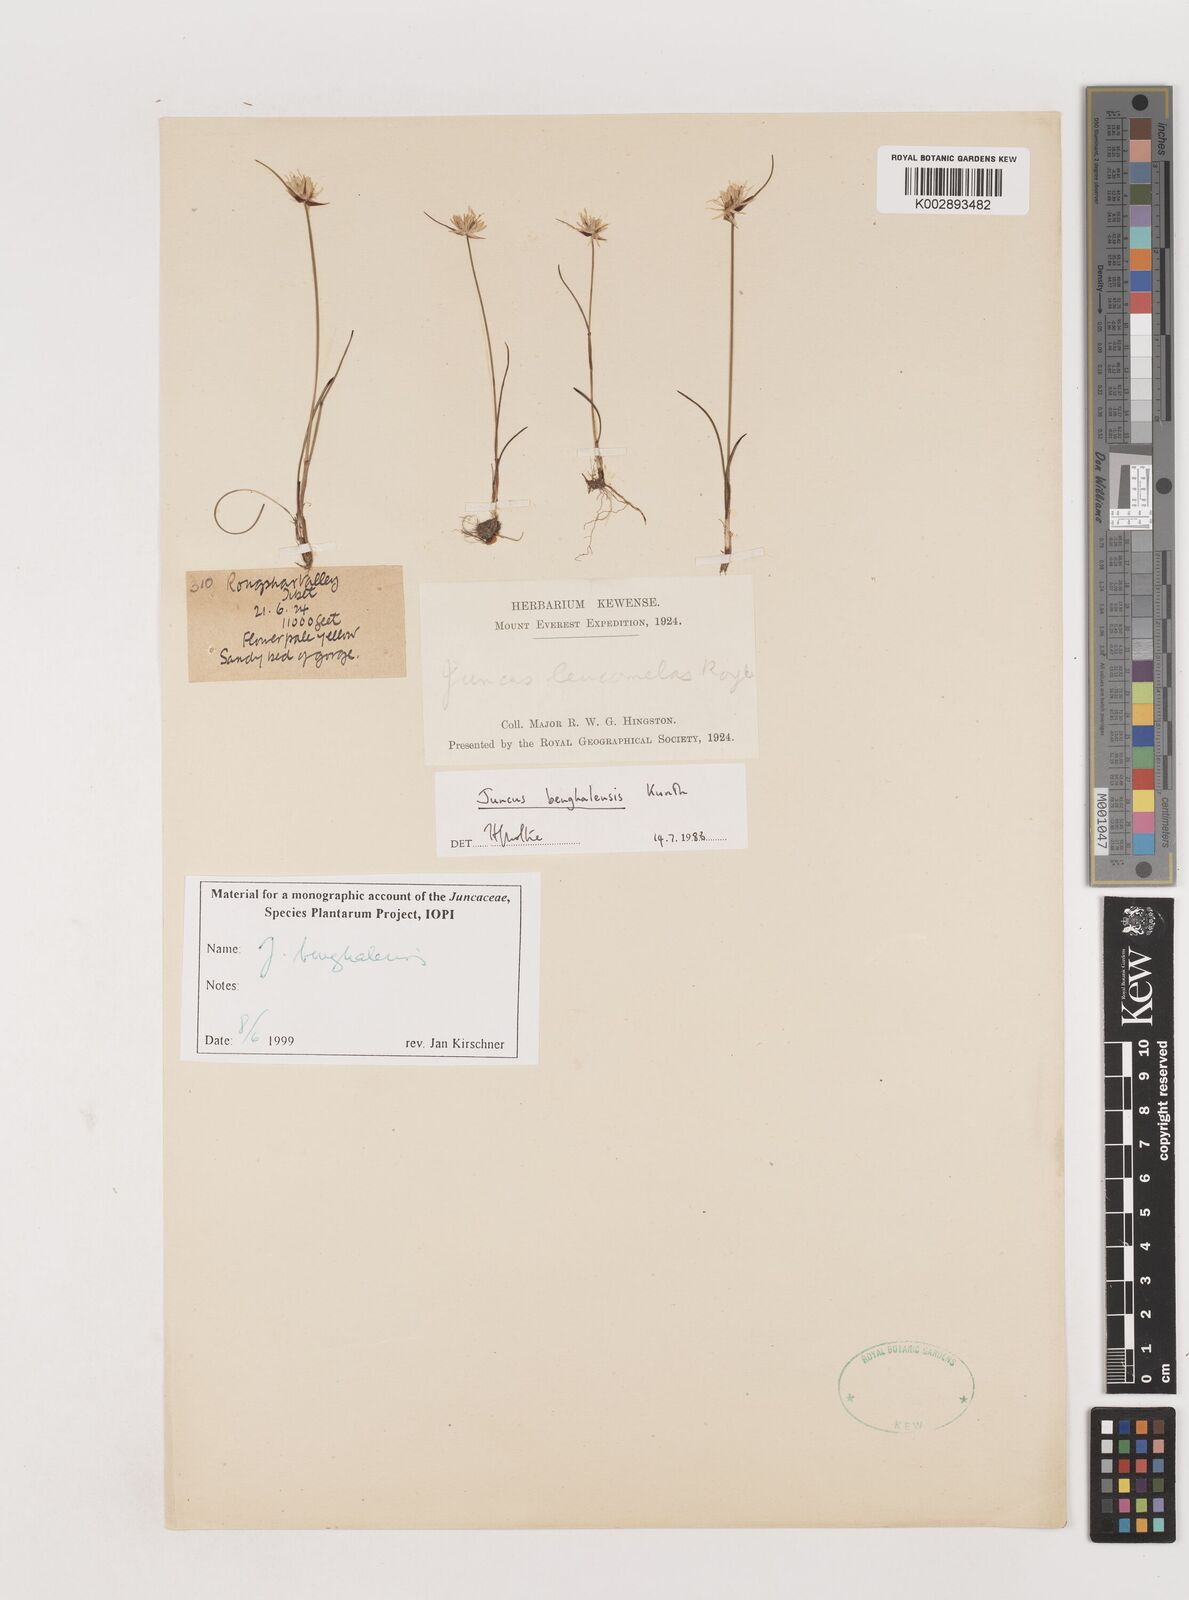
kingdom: Plantae
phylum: Tracheophyta
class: Liliopsida
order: Poales
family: Juncaceae
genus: Juncus
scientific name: Juncus benghalensis
